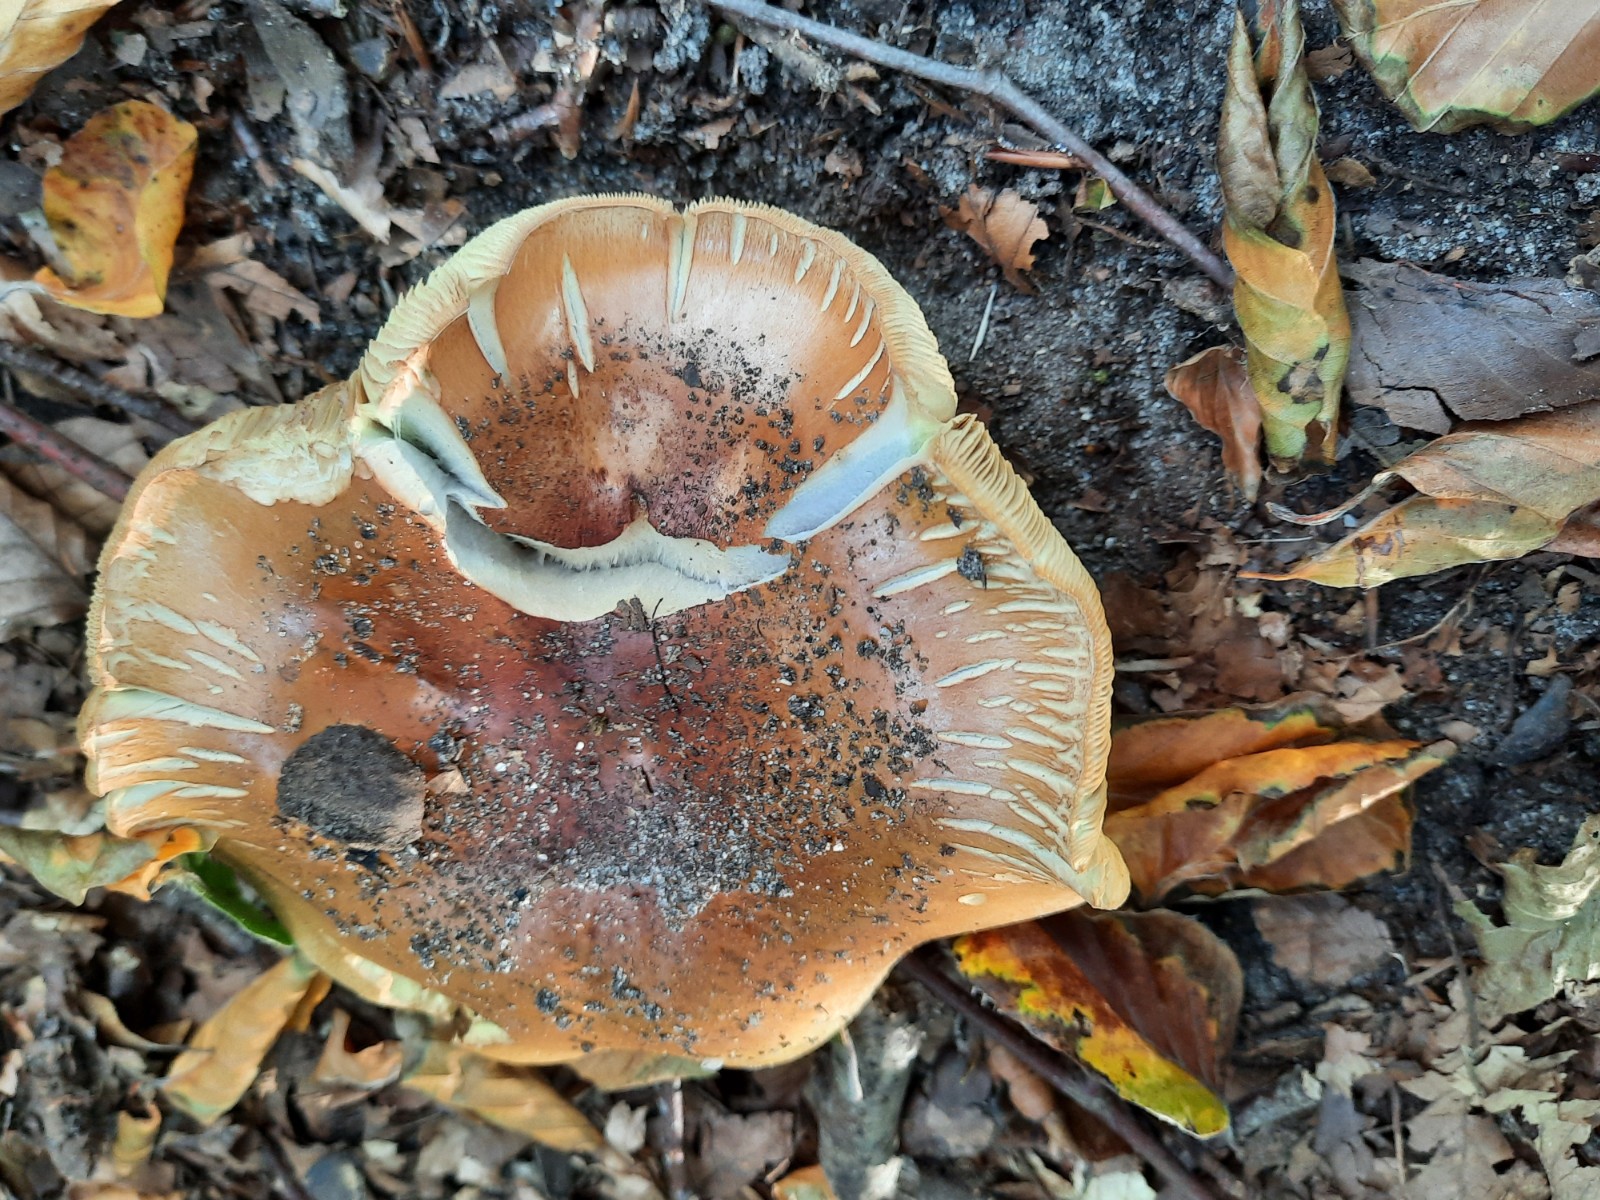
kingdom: Fungi
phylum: Basidiomycota
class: Agaricomycetes
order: Agaricales
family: Cortinariaceae
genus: Cortinarius
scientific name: Cortinarius bergeronii
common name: prægtig slørhat
